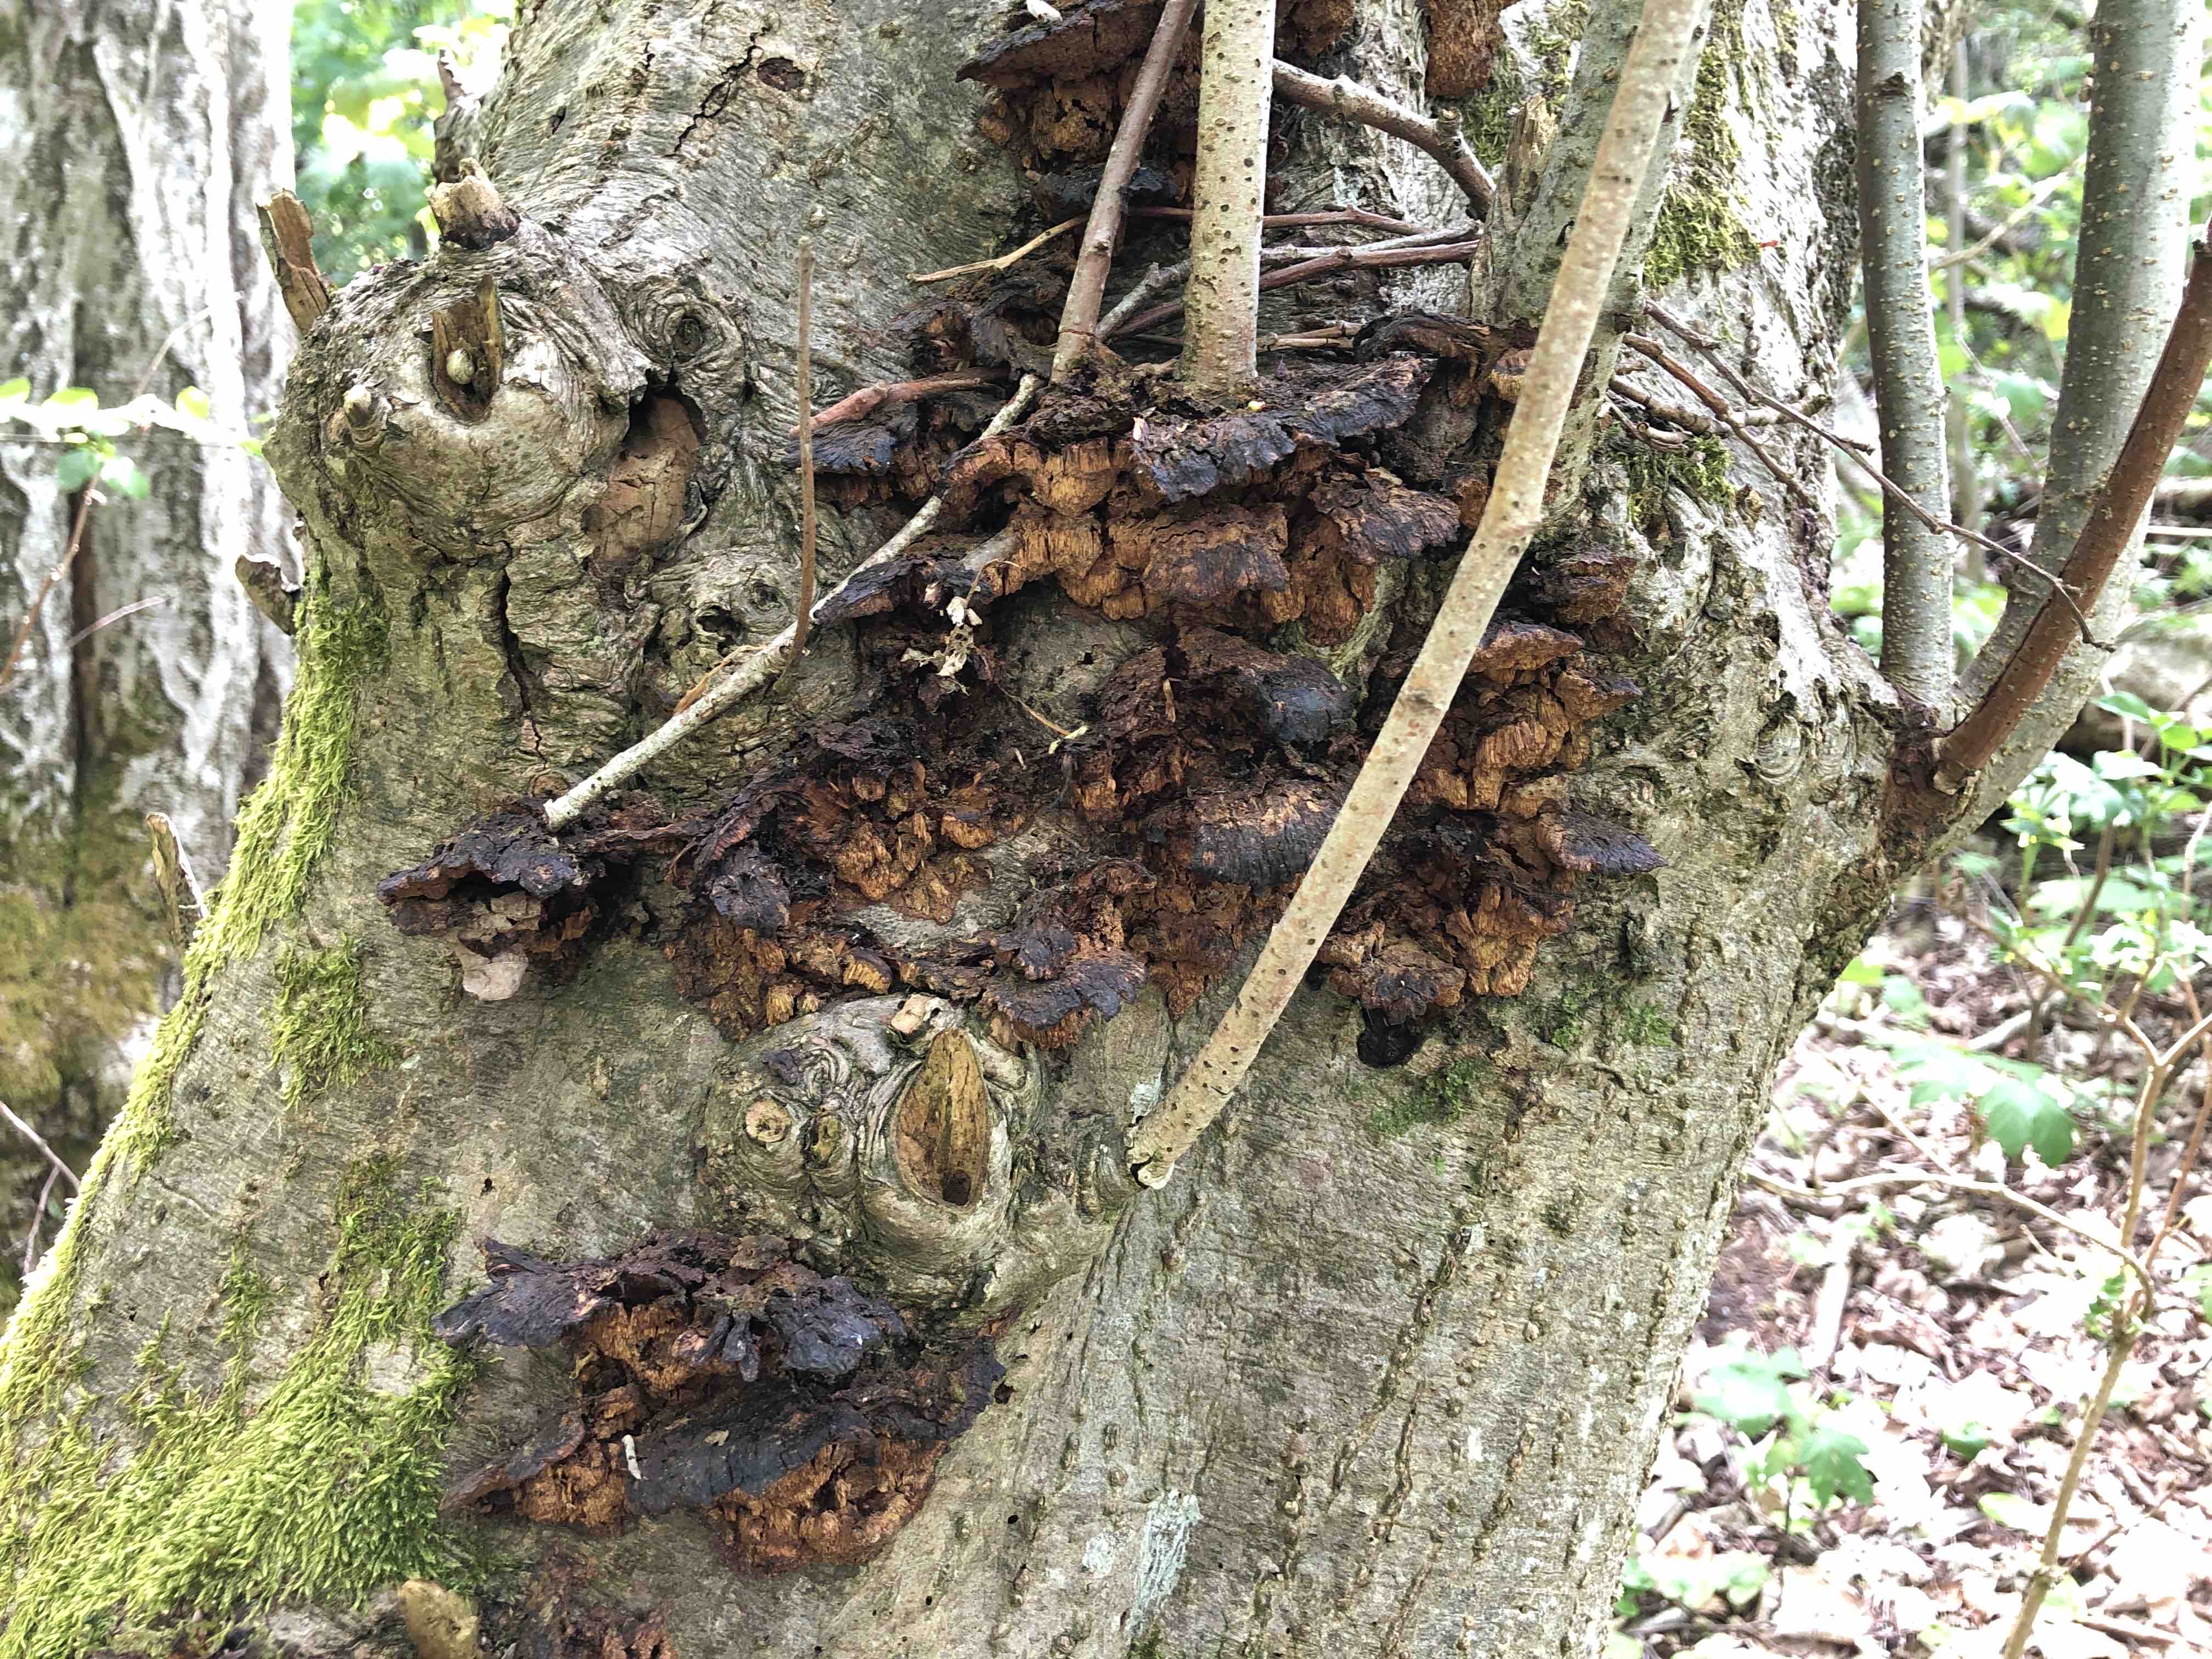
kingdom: Fungi
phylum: Basidiomycota
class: Agaricomycetes
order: Hymenochaetales
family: Hymenochaetaceae
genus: Xanthoporia
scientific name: Xanthoporia radiata
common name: elle-spejlporesvamp
